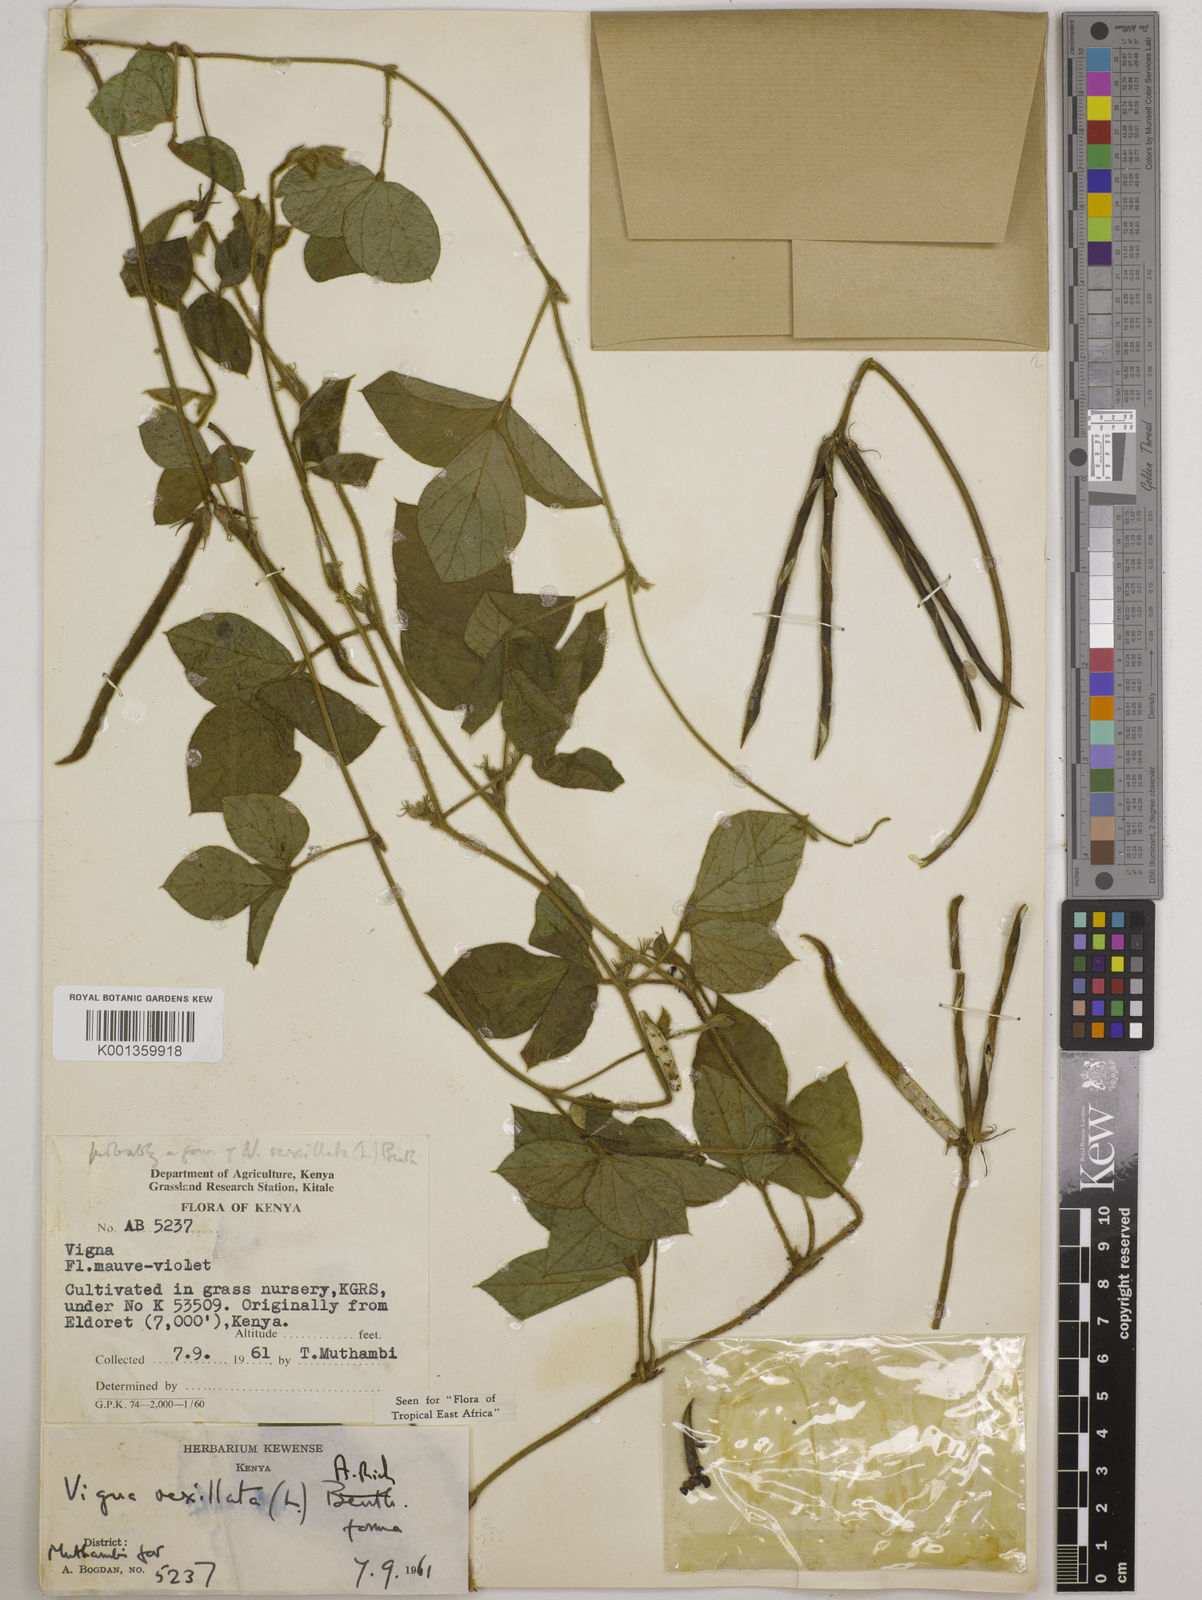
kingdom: Plantae
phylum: Tracheophyta
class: Magnoliopsida
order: Fabales
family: Fabaceae
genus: Vigna
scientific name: Vigna vexillata
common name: Zombi pea
